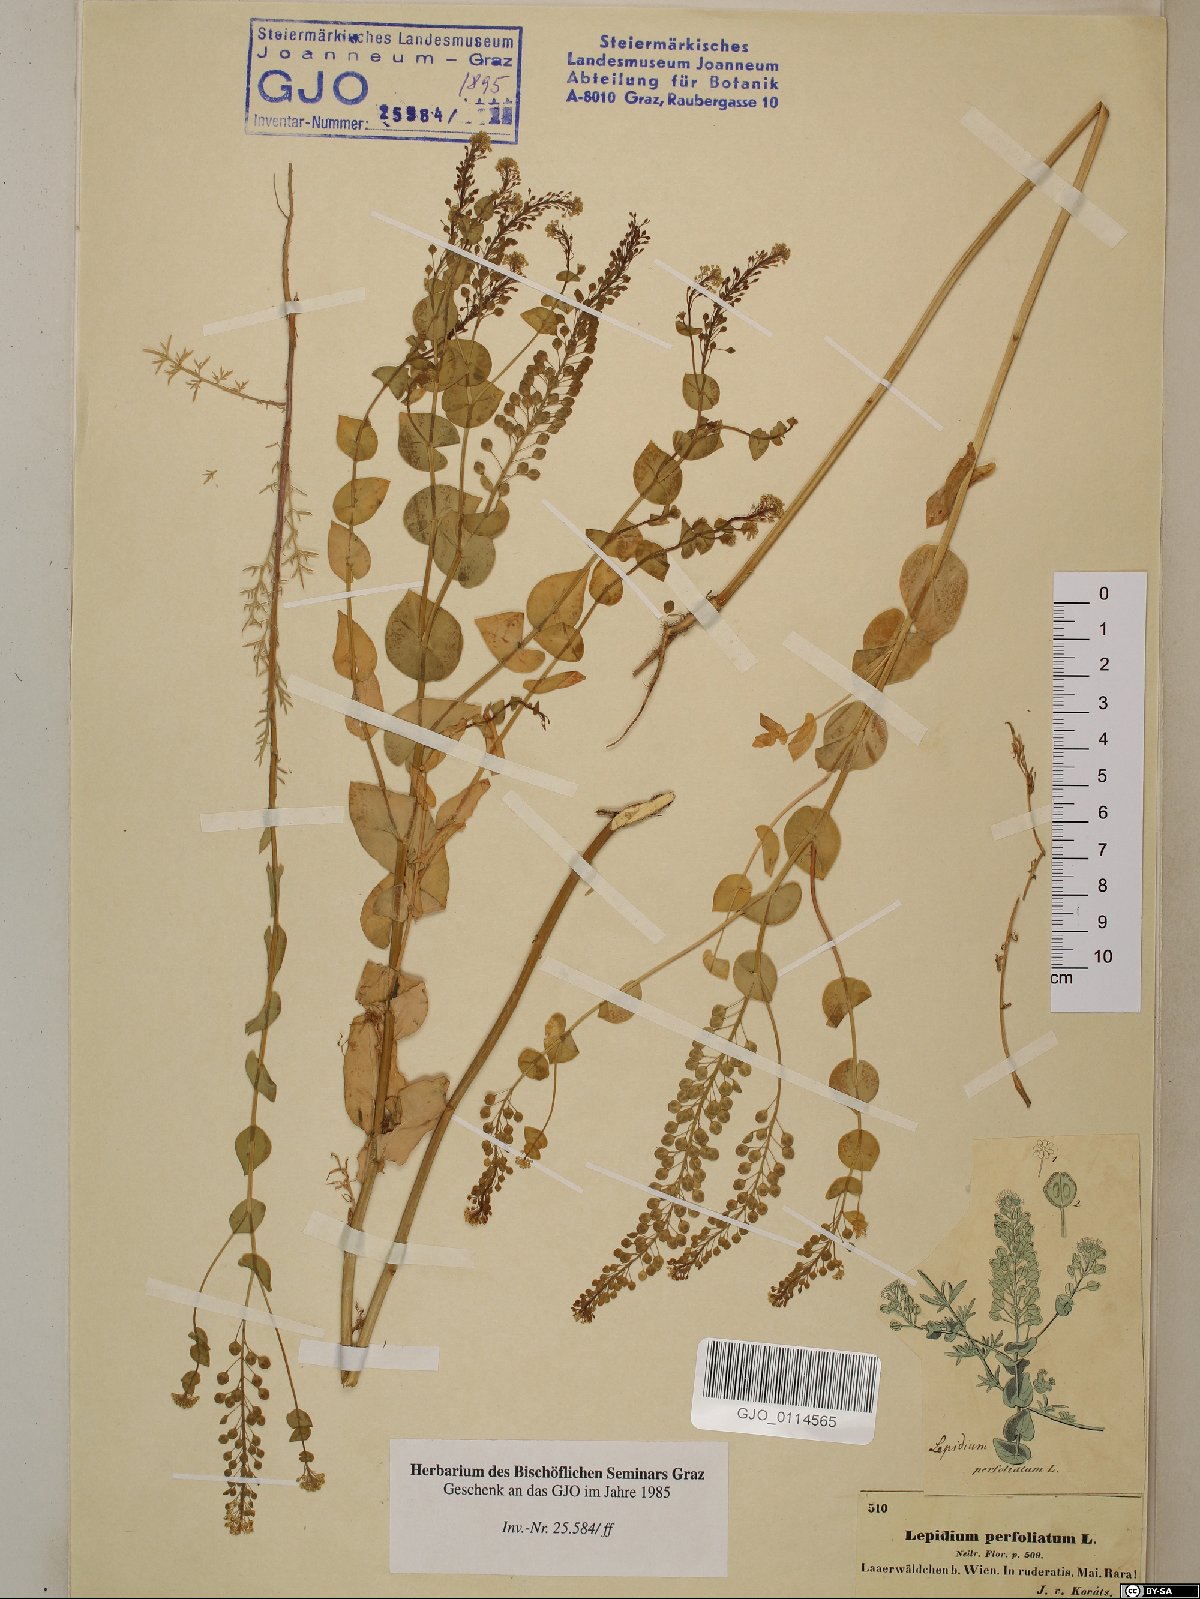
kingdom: Plantae
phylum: Tracheophyta
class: Magnoliopsida
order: Brassicales
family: Brassicaceae
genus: Lepidium
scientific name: Lepidium perfoliatum
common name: Perfoliate pepperwort
